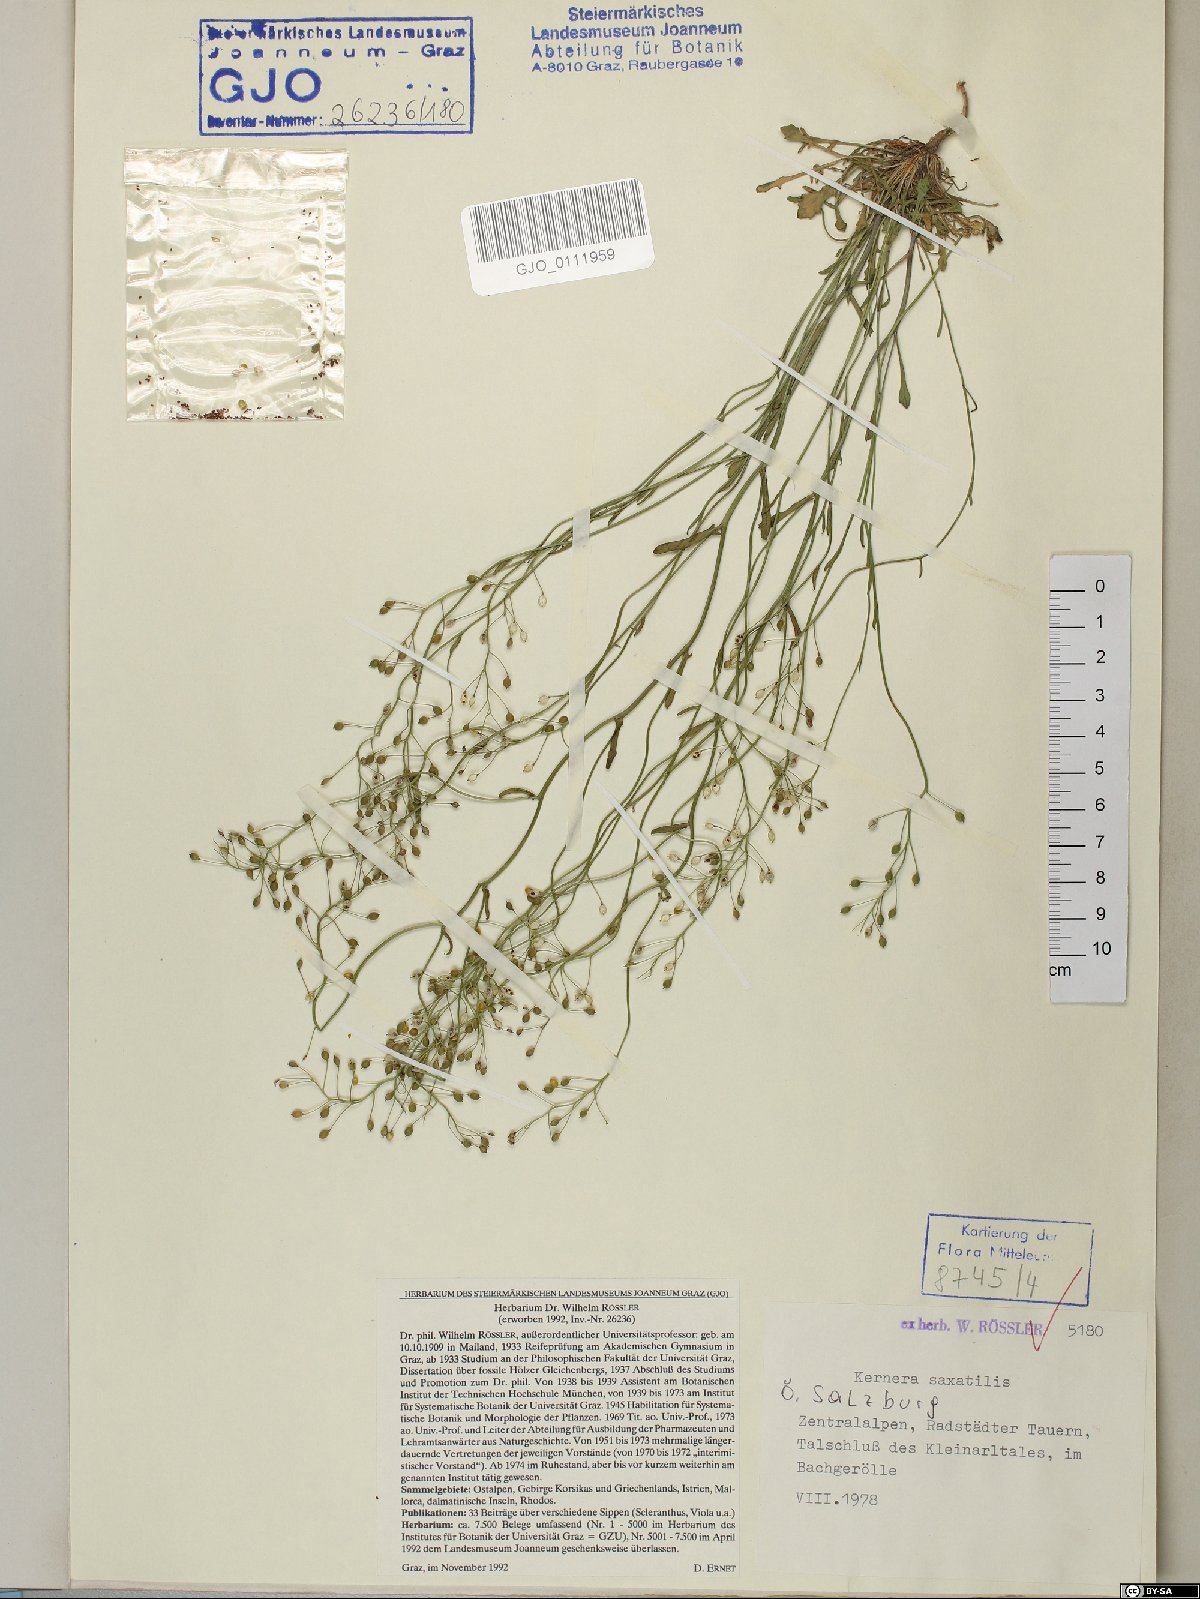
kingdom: Plantae
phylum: Tracheophyta
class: Magnoliopsida
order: Brassicales
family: Brassicaceae
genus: Kernera
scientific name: Kernera saxatilis
